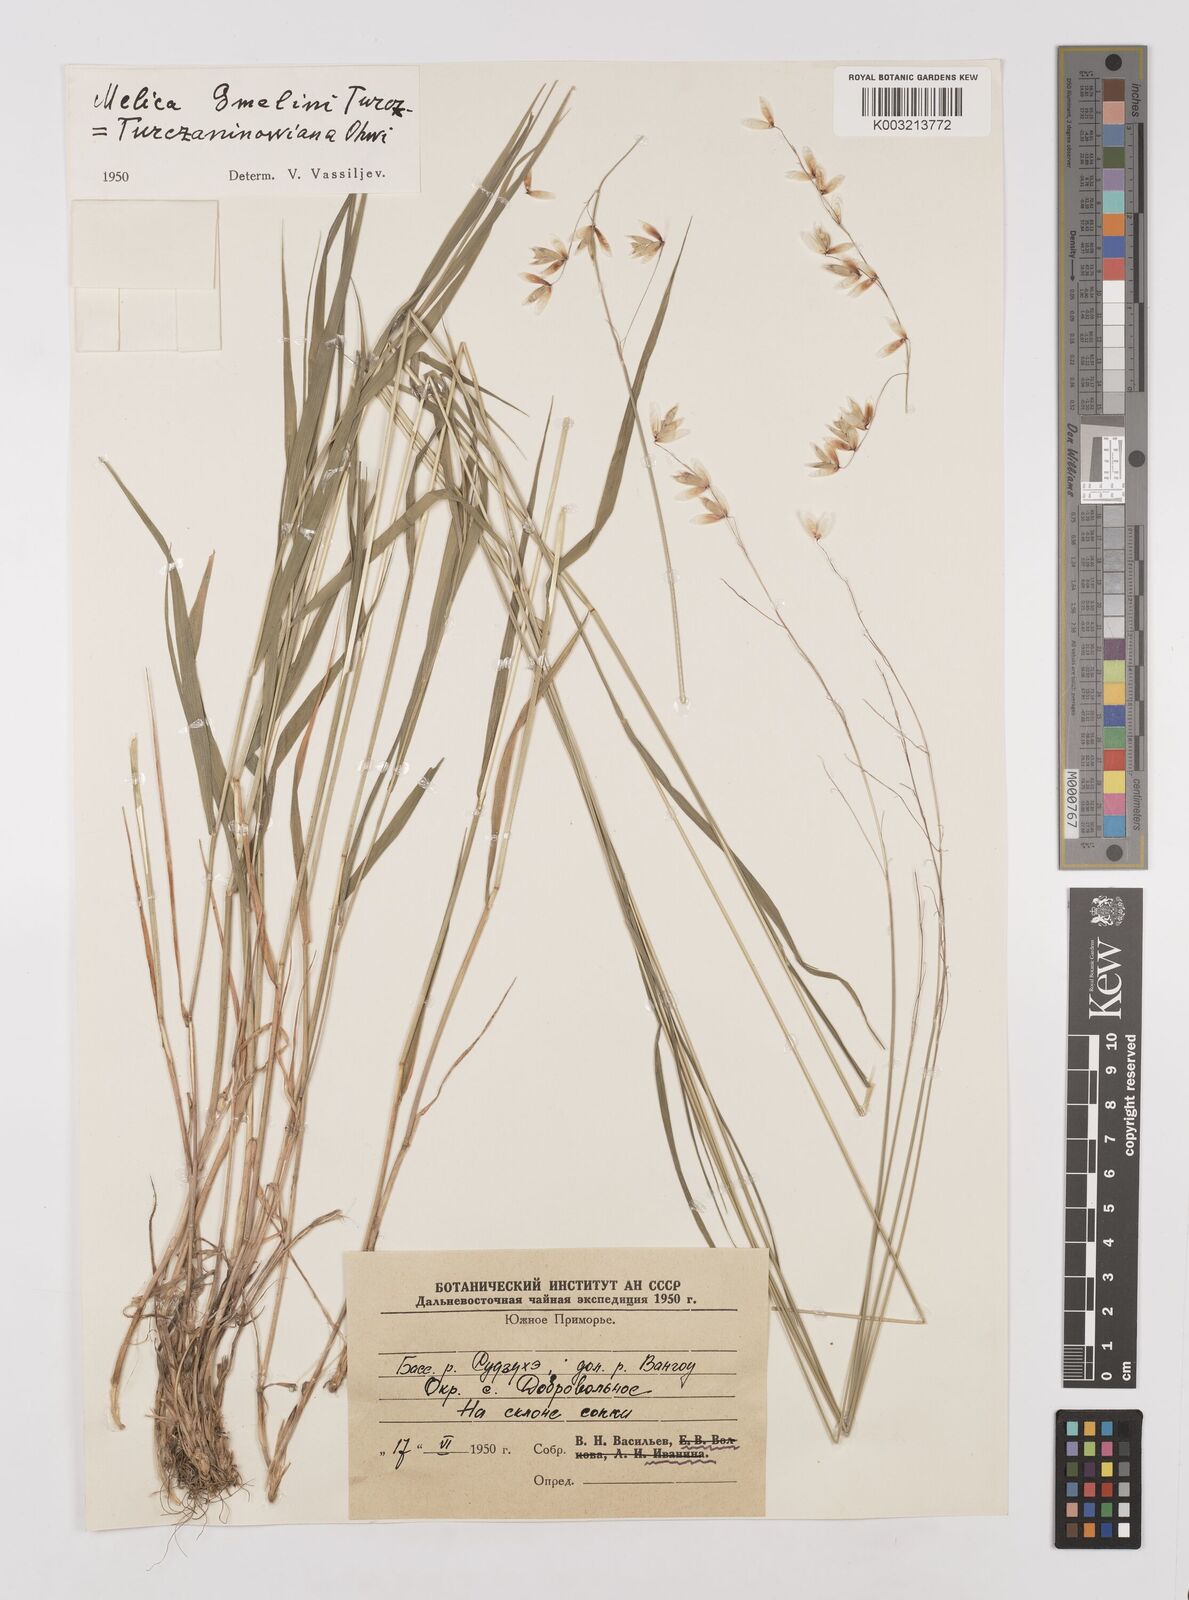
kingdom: Plantae
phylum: Tracheophyta
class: Liliopsida
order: Poales
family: Poaceae
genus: Melica
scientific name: Melica turczaninowiana
